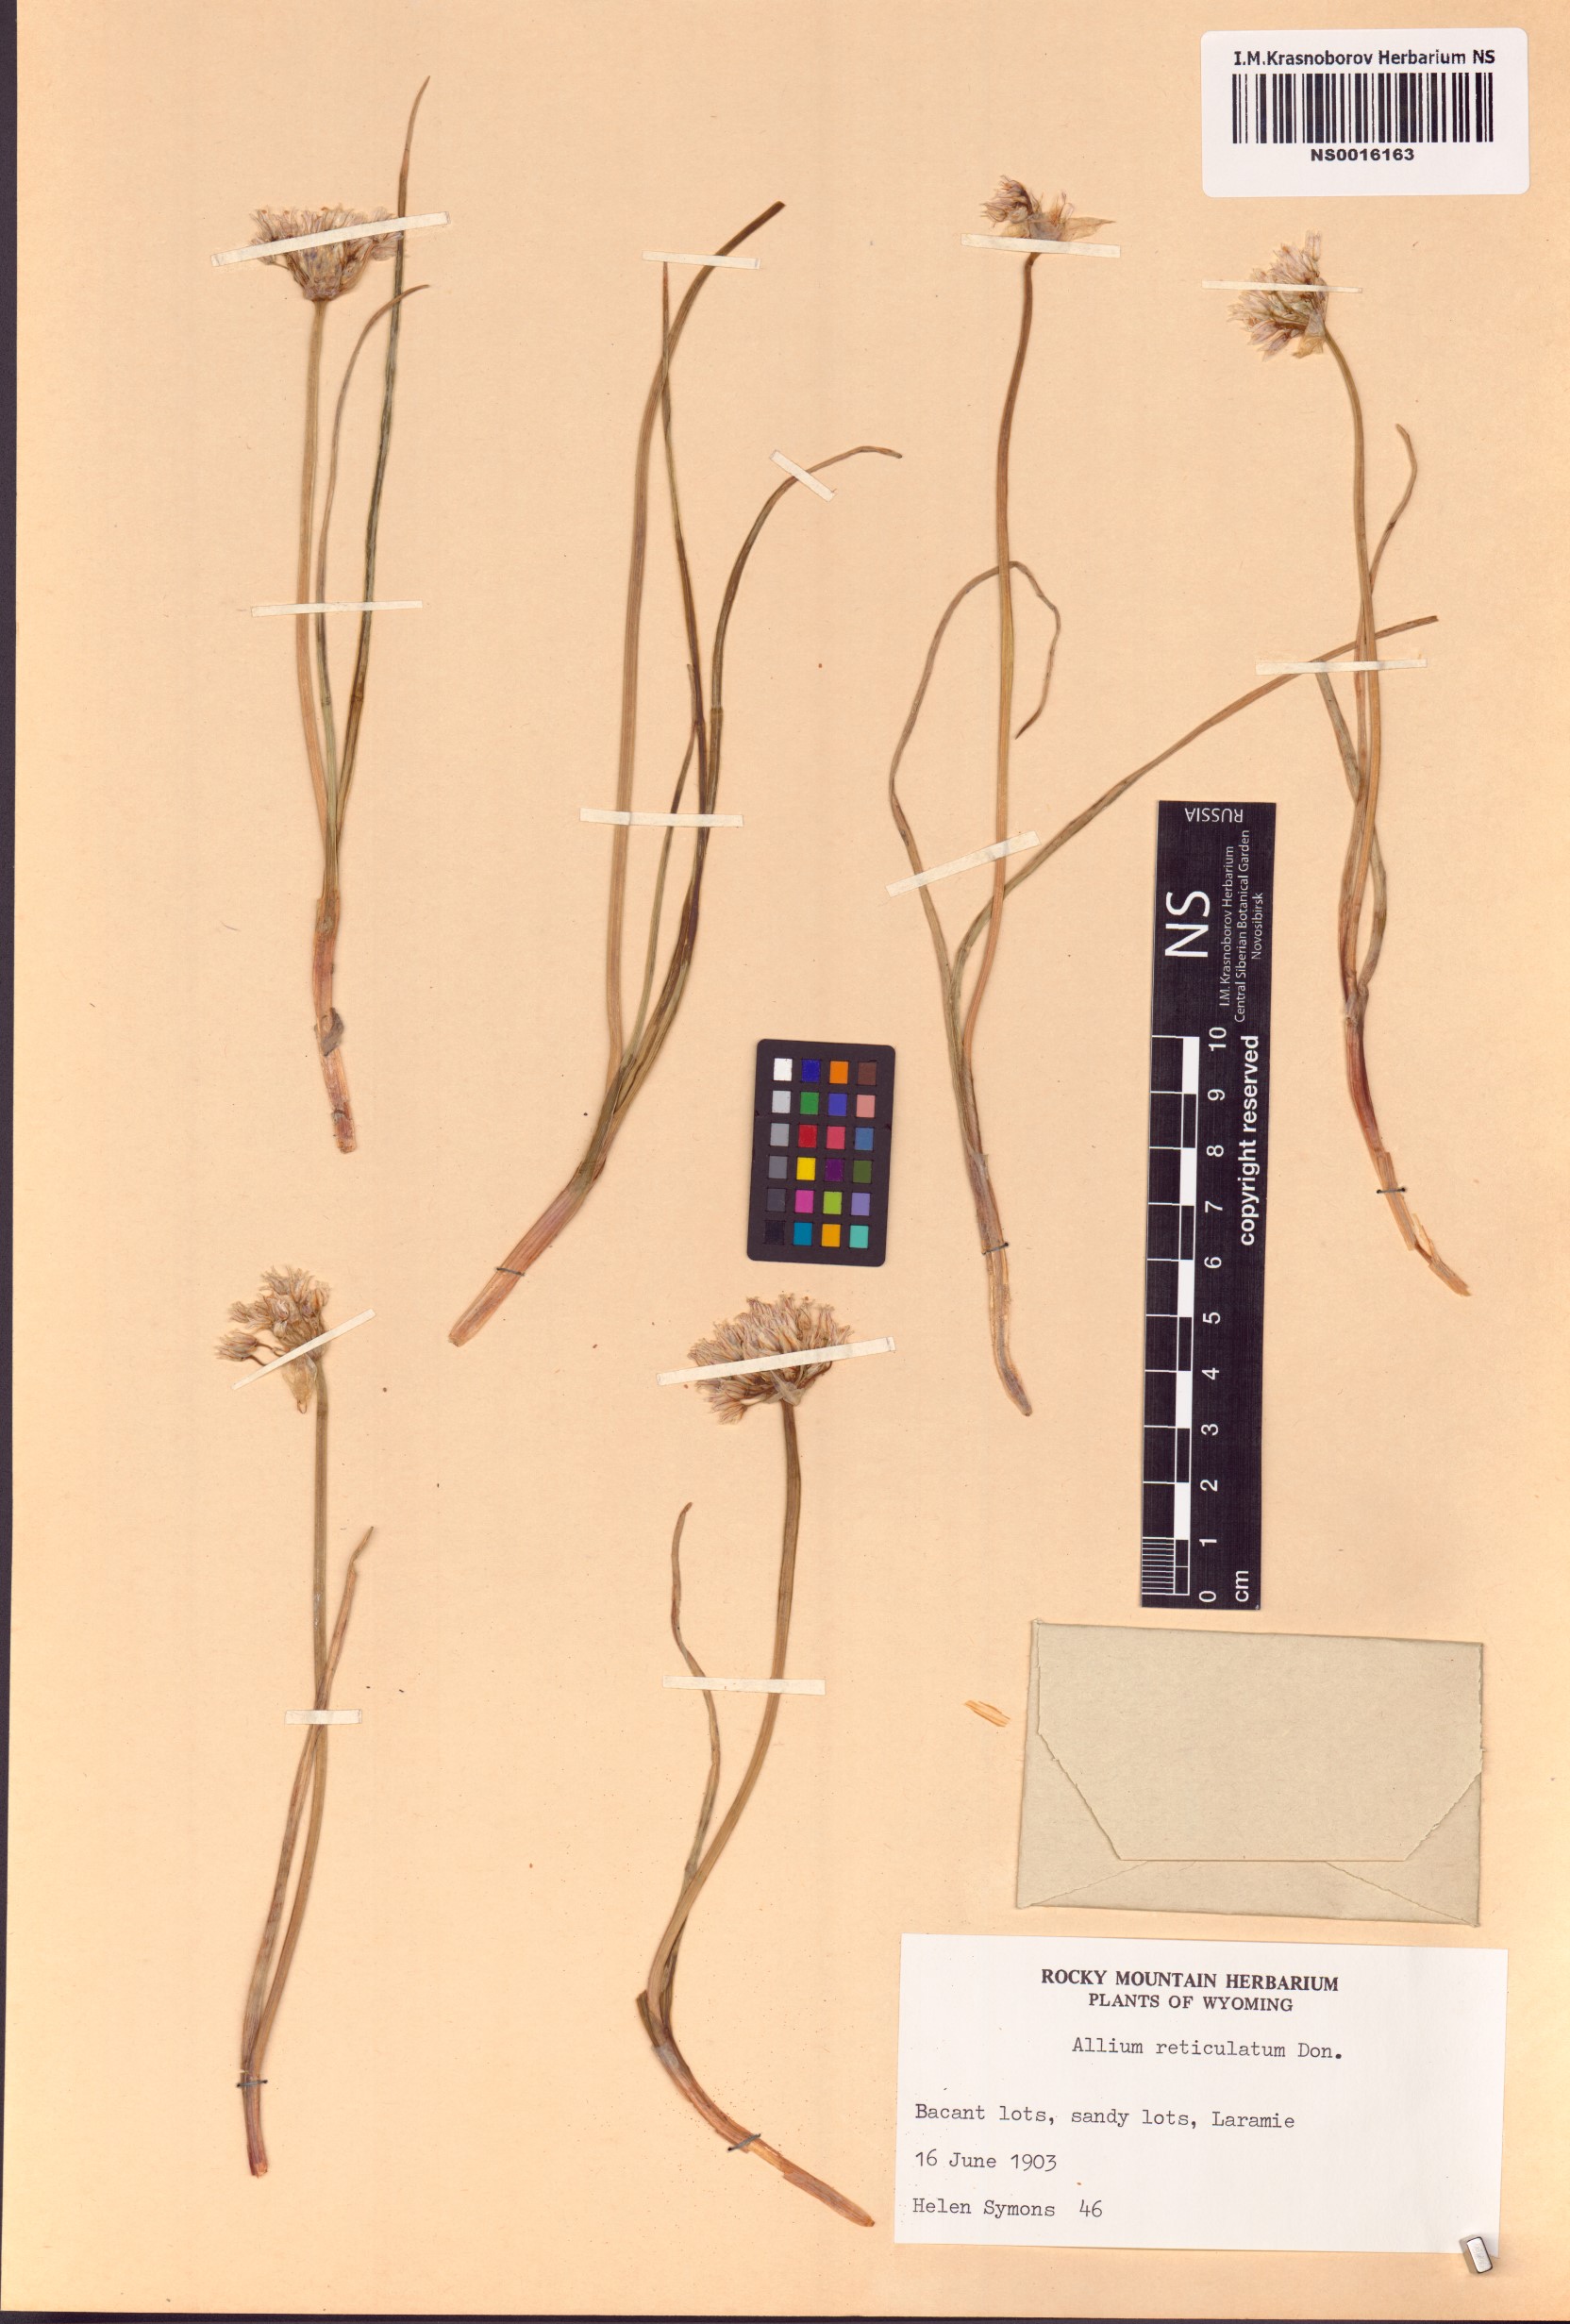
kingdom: Plantae
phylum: Tracheophyta
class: Liliopsida
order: Asparagales
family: Amaryllidaceae
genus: Allium
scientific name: Allium textile
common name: Prairie onion
